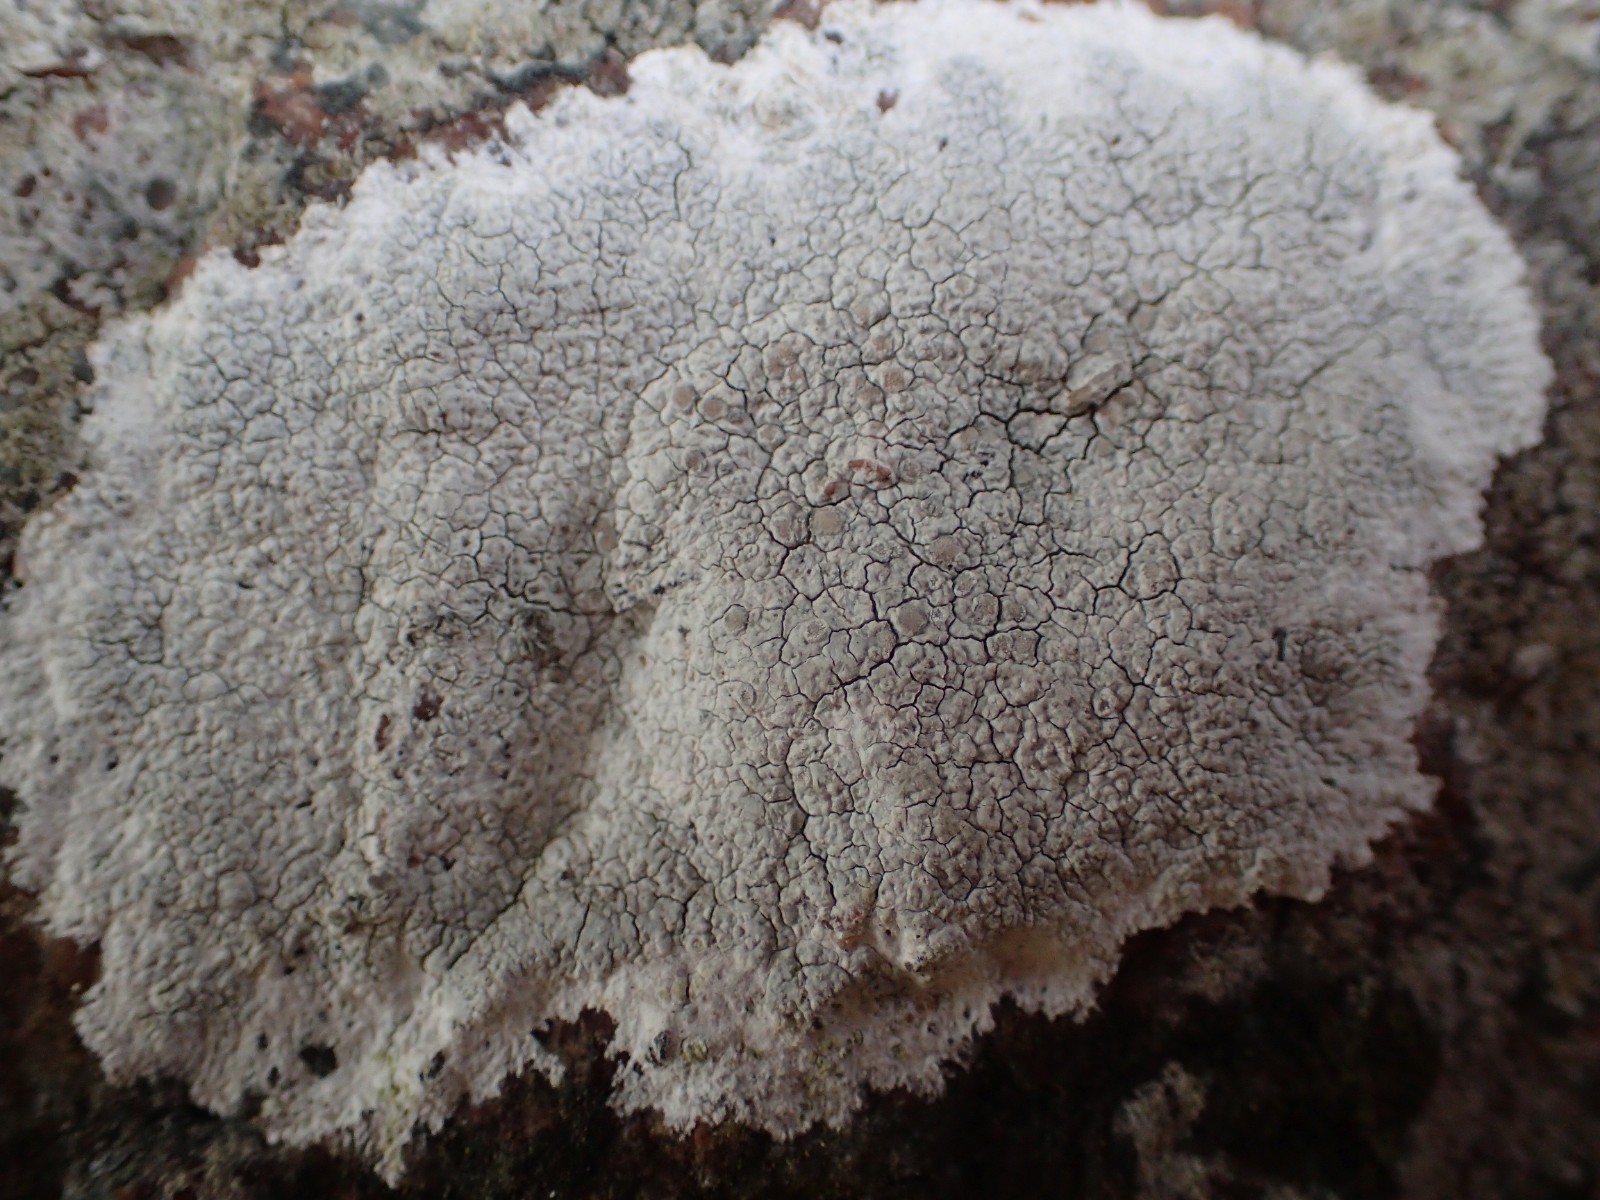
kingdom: Fungi
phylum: Ascomycota
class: Lecanoromycetes
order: Lecanorales
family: Lecanoraceae
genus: Glaucomaria
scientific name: Glaucomaria rupicola
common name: stengærde-kantskivelav
